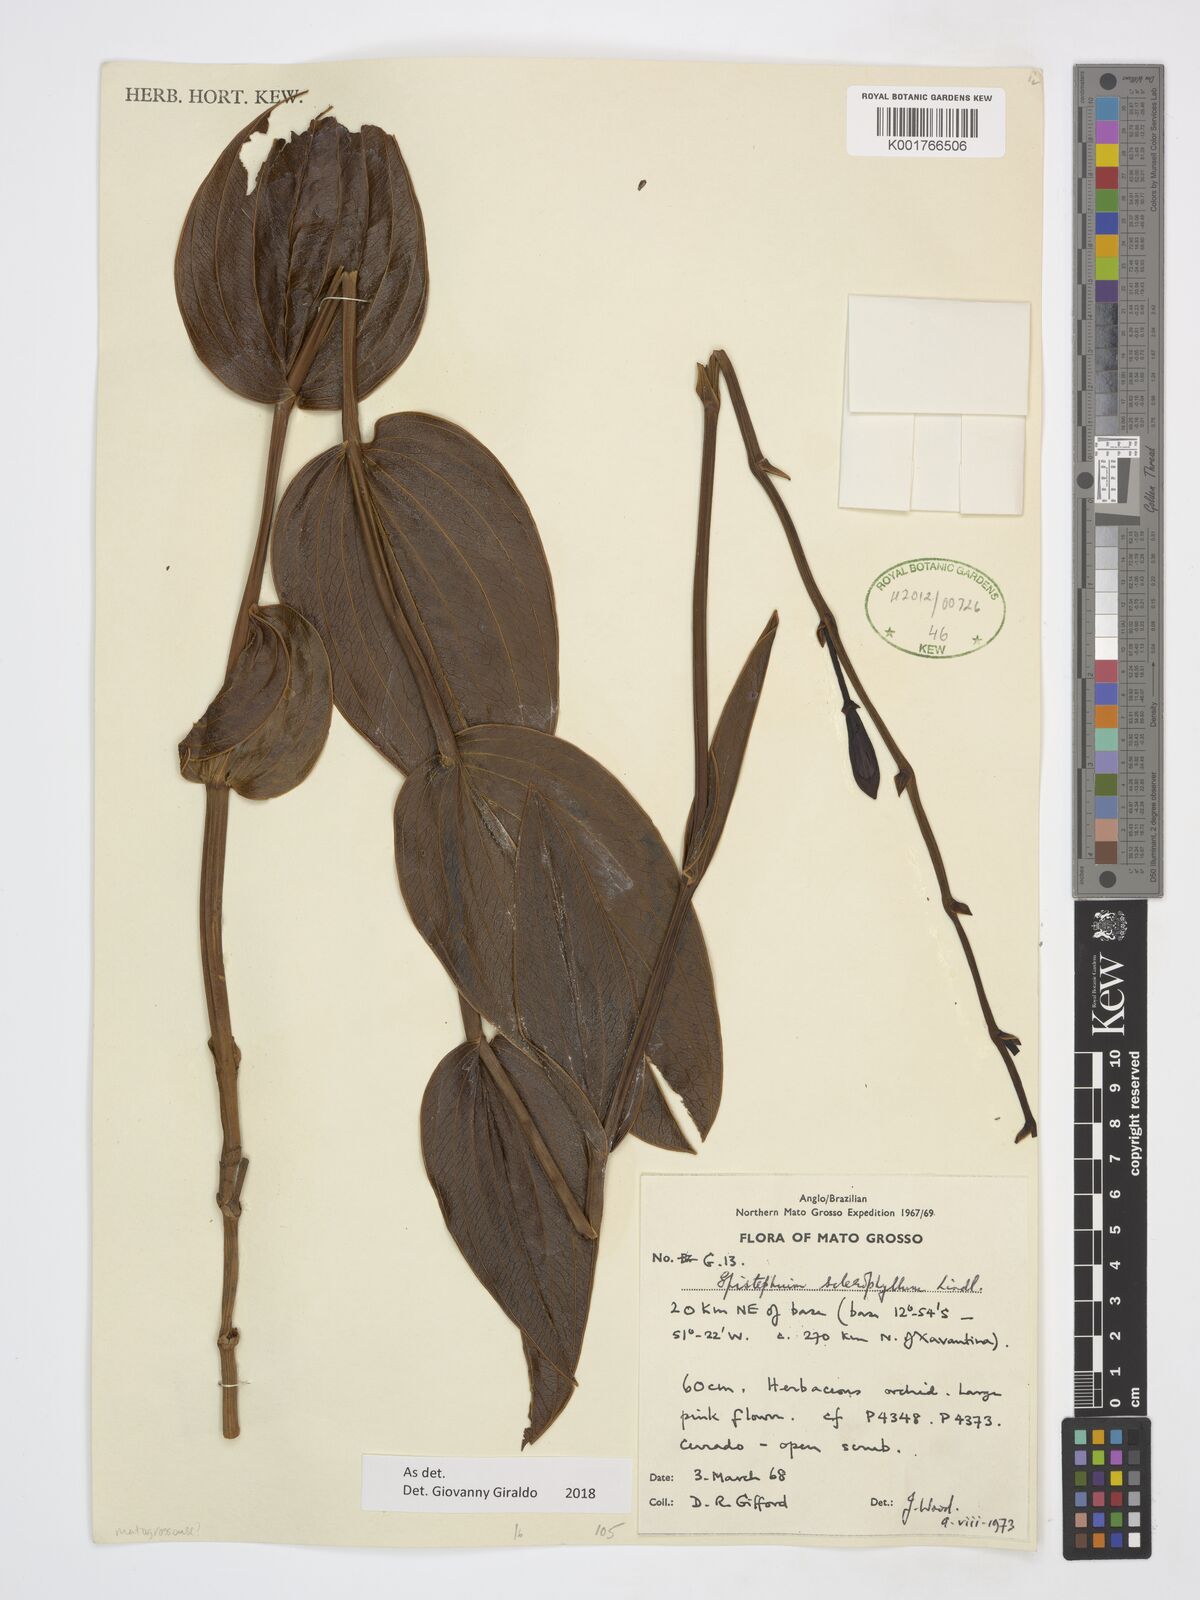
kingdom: Plantae
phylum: Tracheophyta
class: Liliopsida
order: Asparagales
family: Orchidaceae
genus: Epistephium
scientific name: Epistephium sclerophyllum
